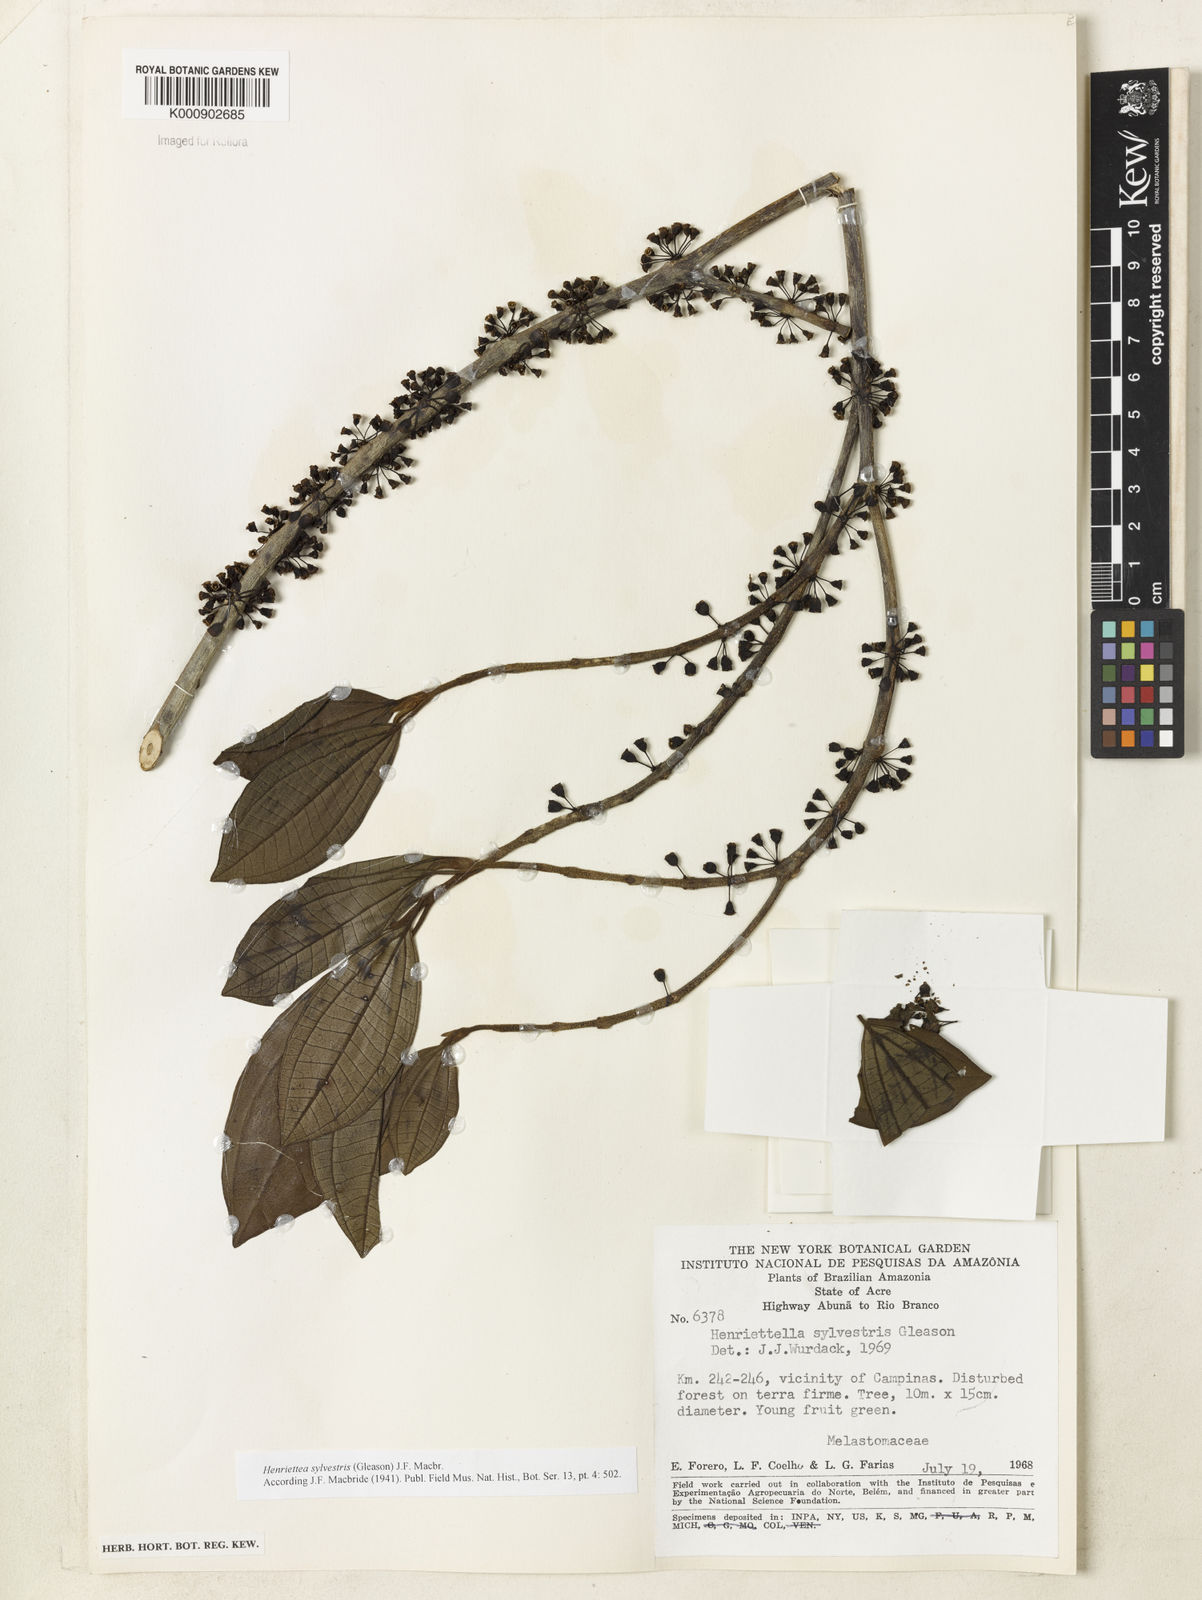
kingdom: Plantae
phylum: Tracheophyta
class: Magnoliopsida
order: Myrtales
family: Melastomataceae
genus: Henriettea
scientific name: Henriettea sylvestris
